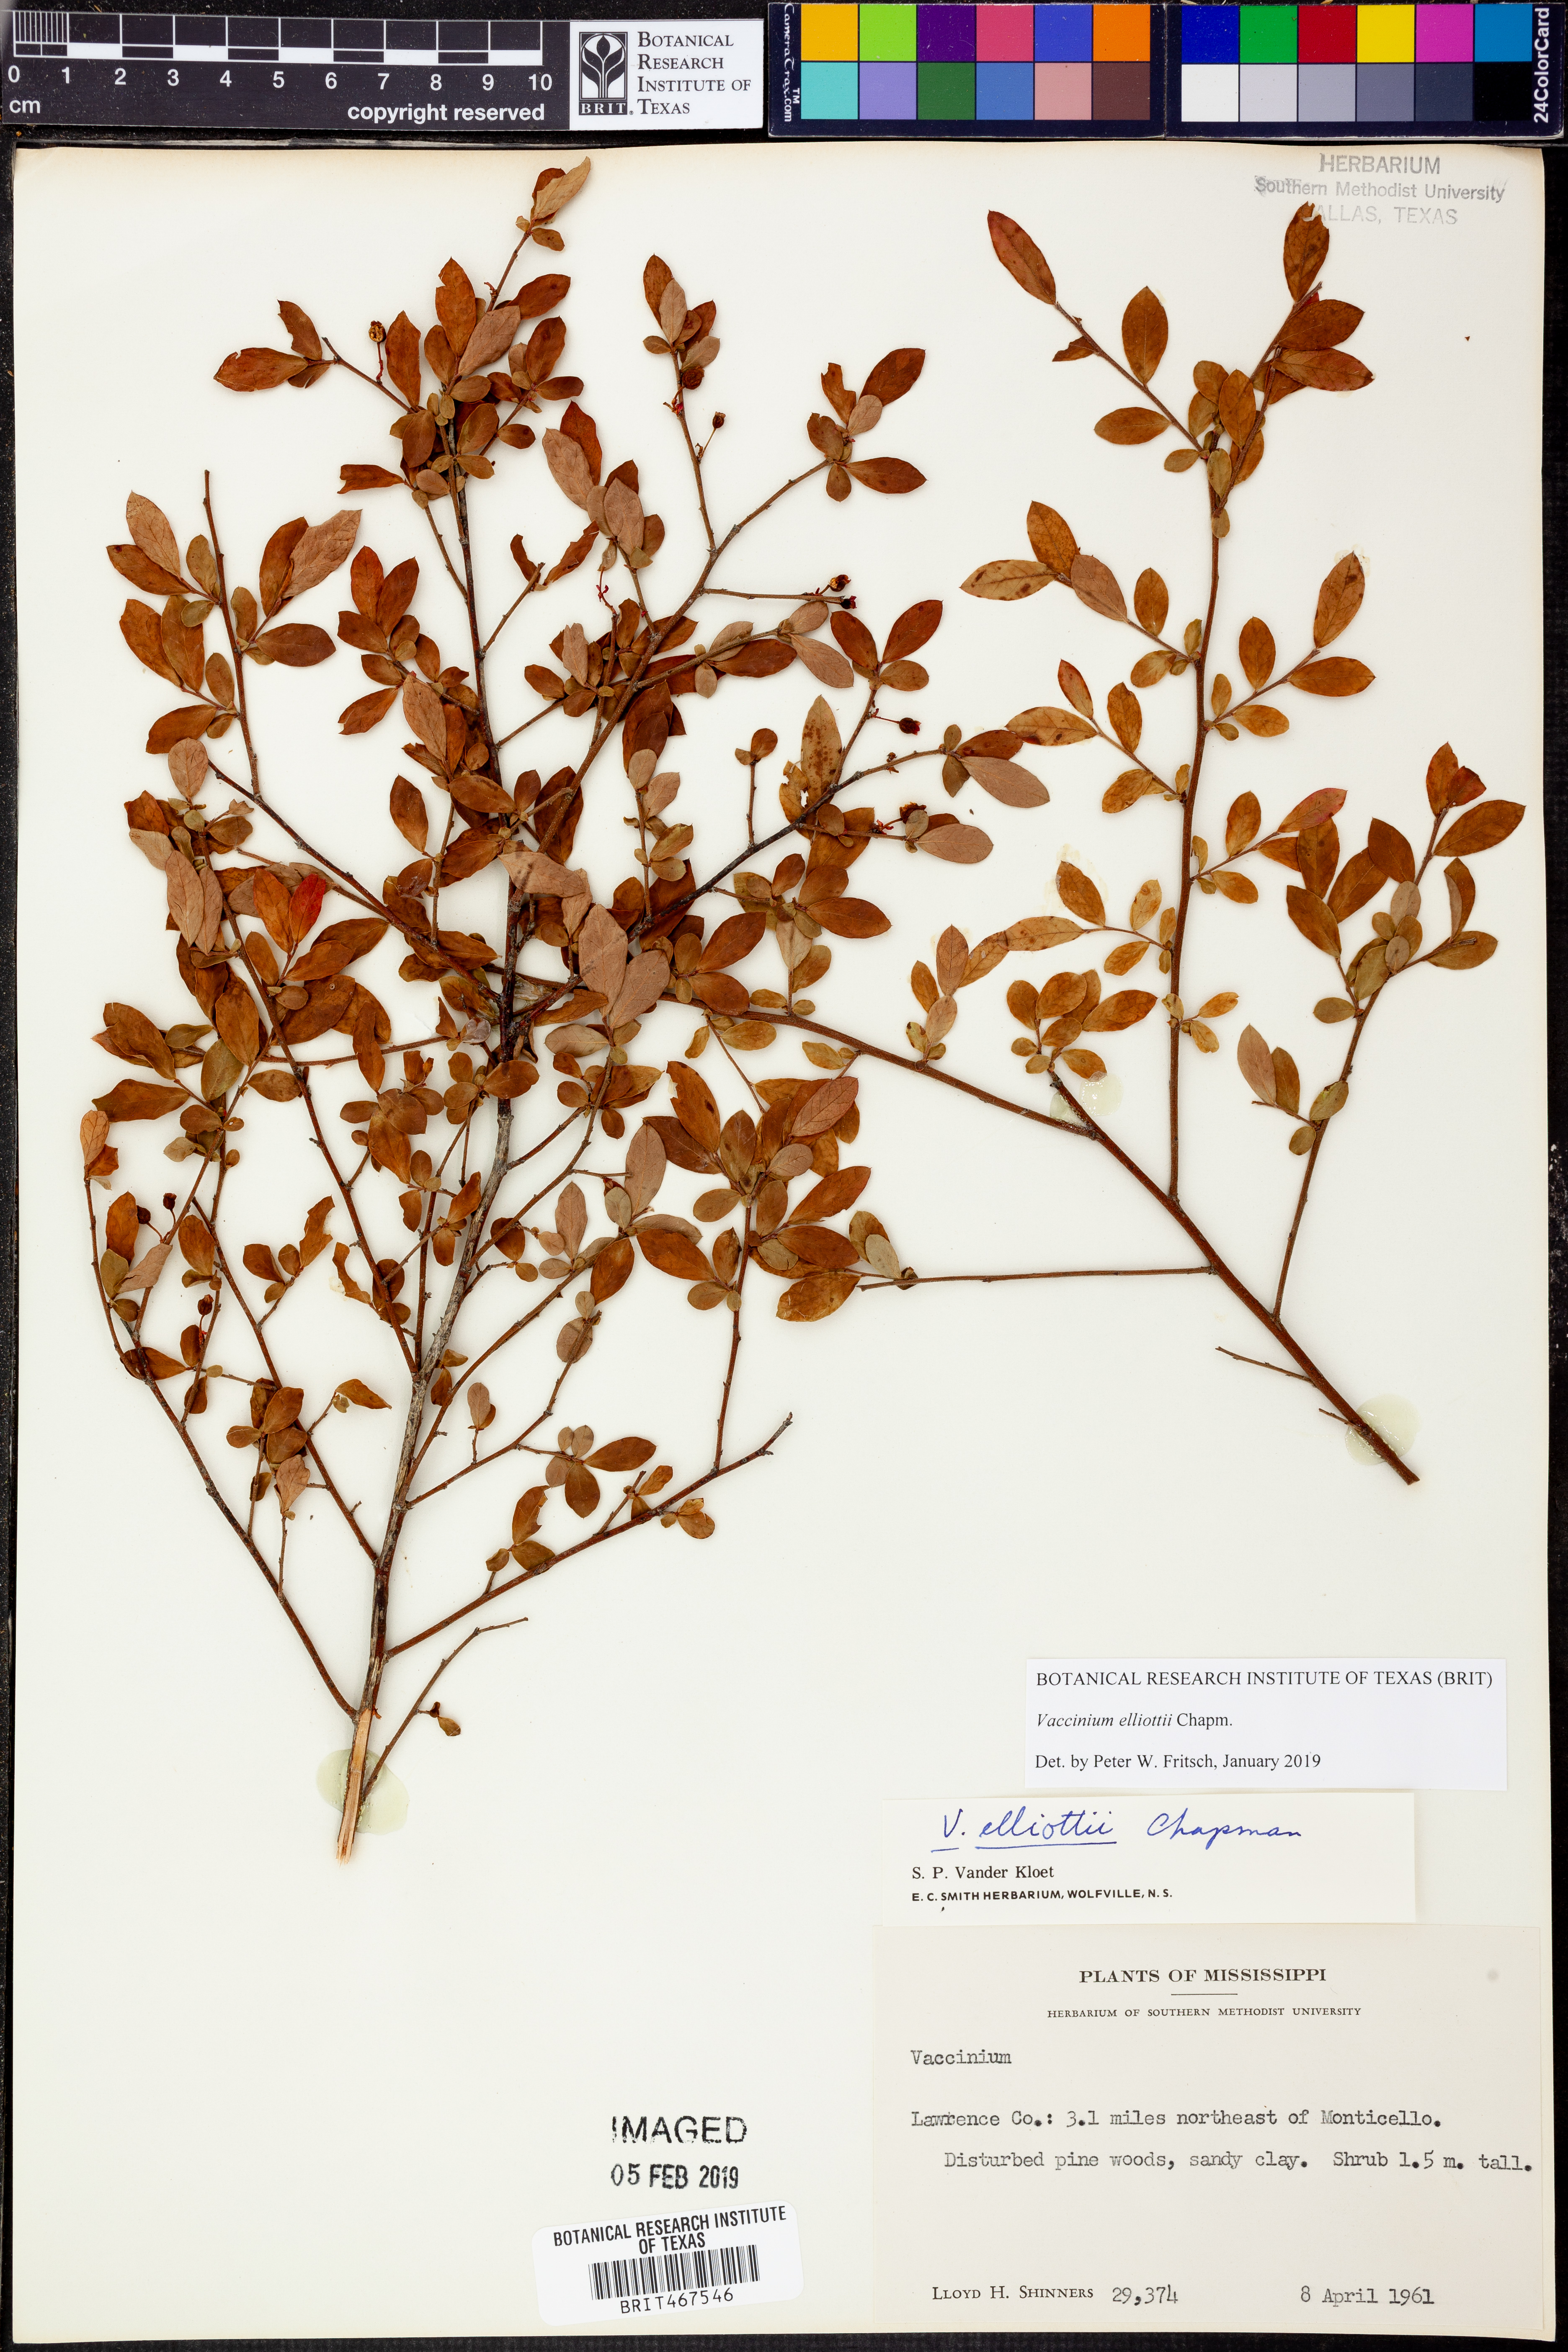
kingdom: Plantae
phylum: Tracheophyta
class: Magnoliopsida
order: Ericales
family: Ericaceae
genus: Vaccinium
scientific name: Vaccinium corymbosum
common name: Blueberry
